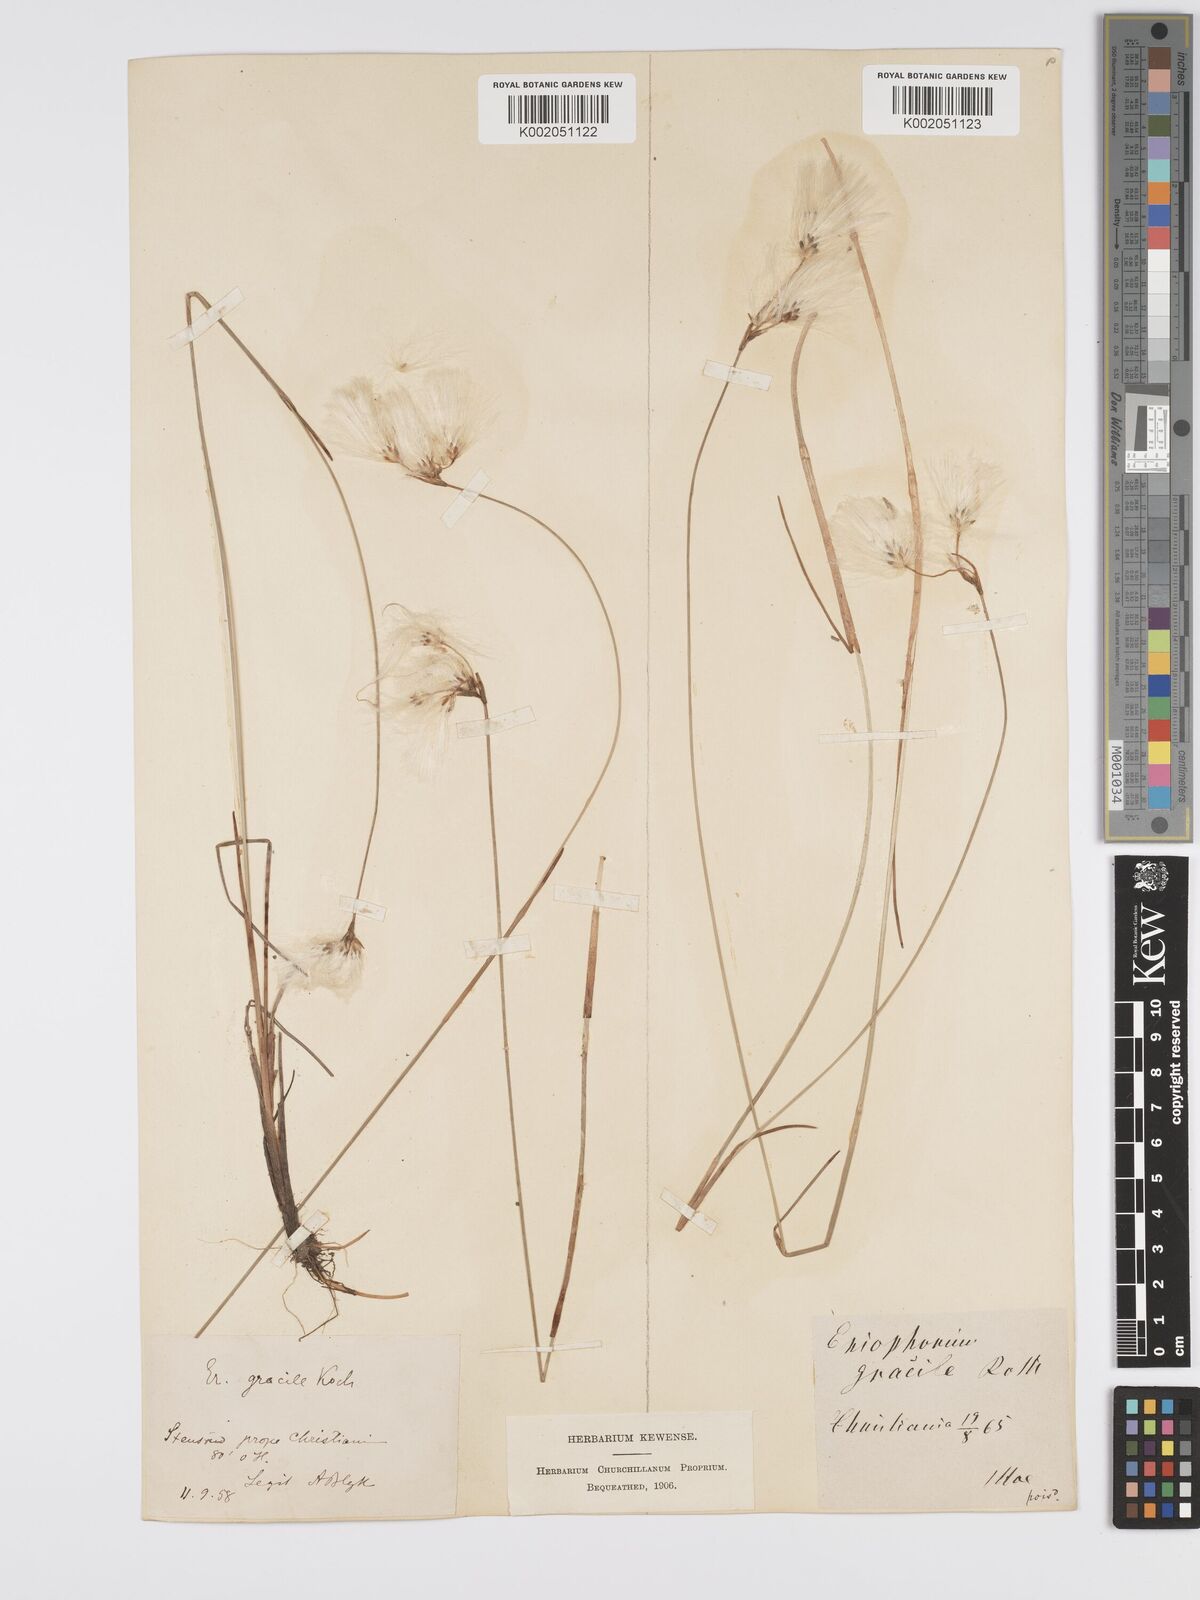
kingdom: Plantae
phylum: Tracheophyta
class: Liliopsida
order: Poales
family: Cyperaceae
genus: Eriophorum
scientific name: Eriophorum gracile
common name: Slender cottongrass
